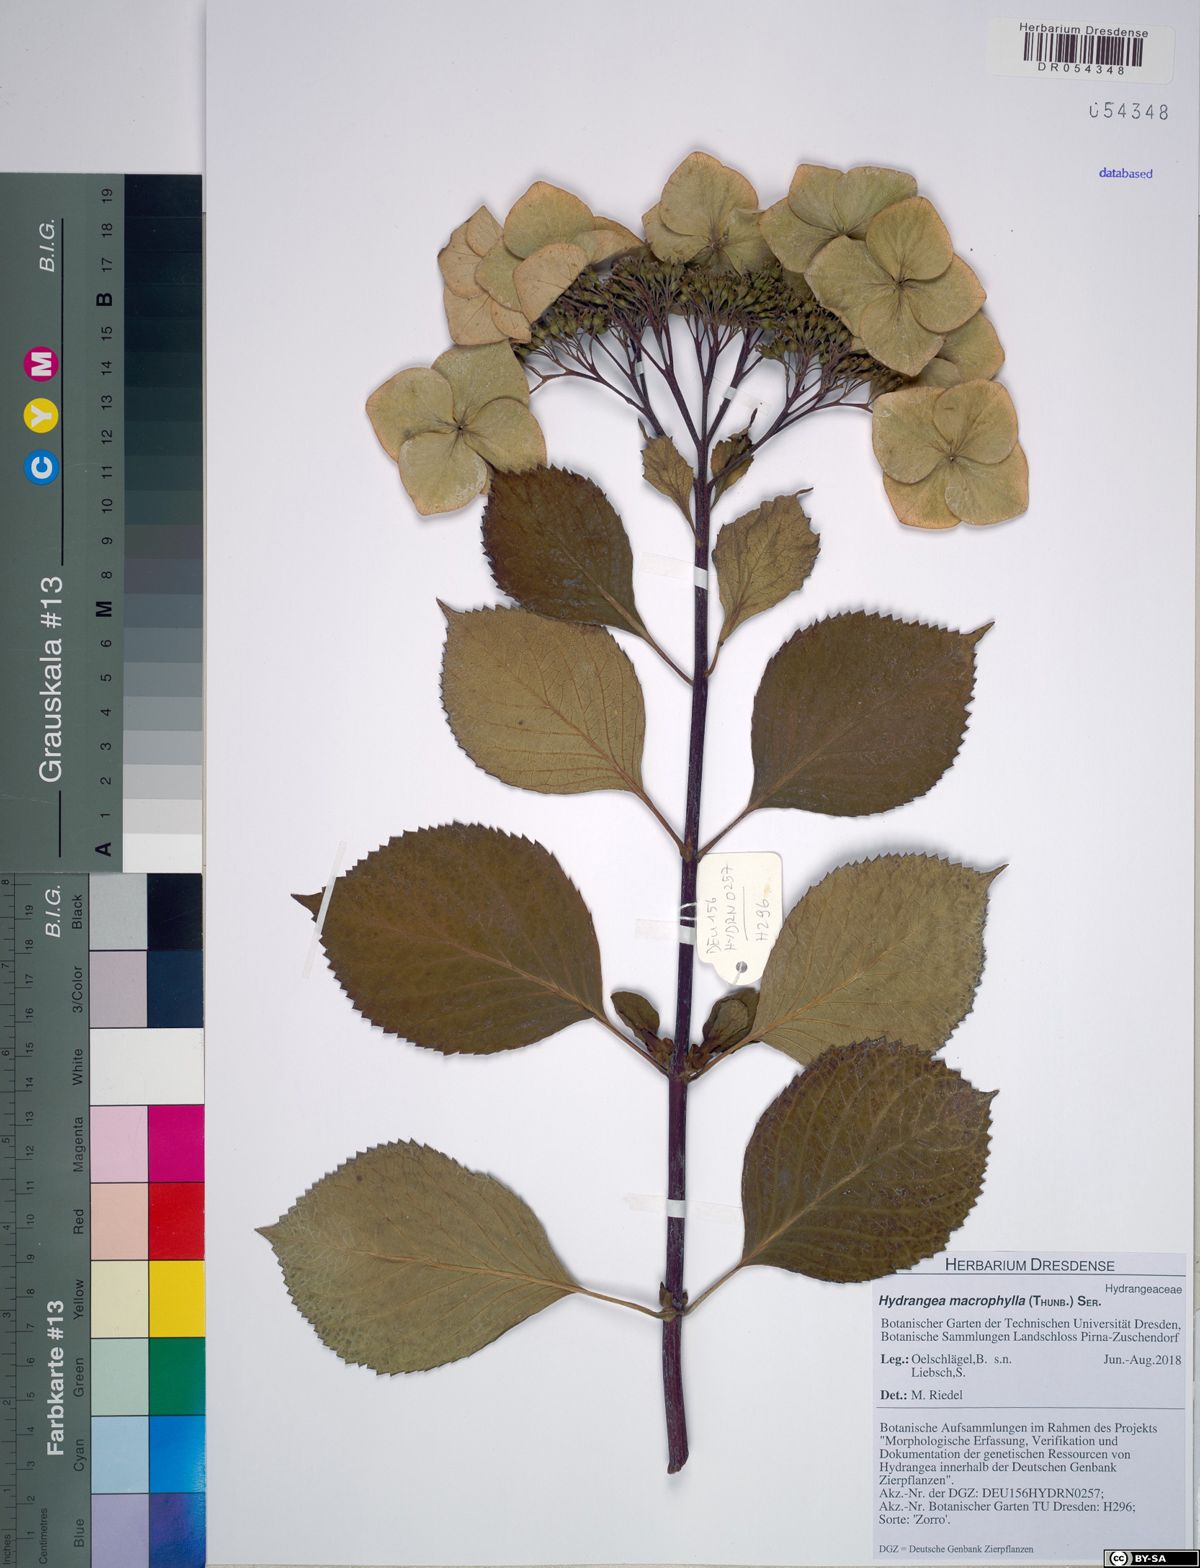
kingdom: Plantae
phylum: Tracheophyta
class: Magnoliopsida
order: Cornales
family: Hydrangeaceae
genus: Hydrangea
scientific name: Hydrangea macrophylla
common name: Hydrangea
